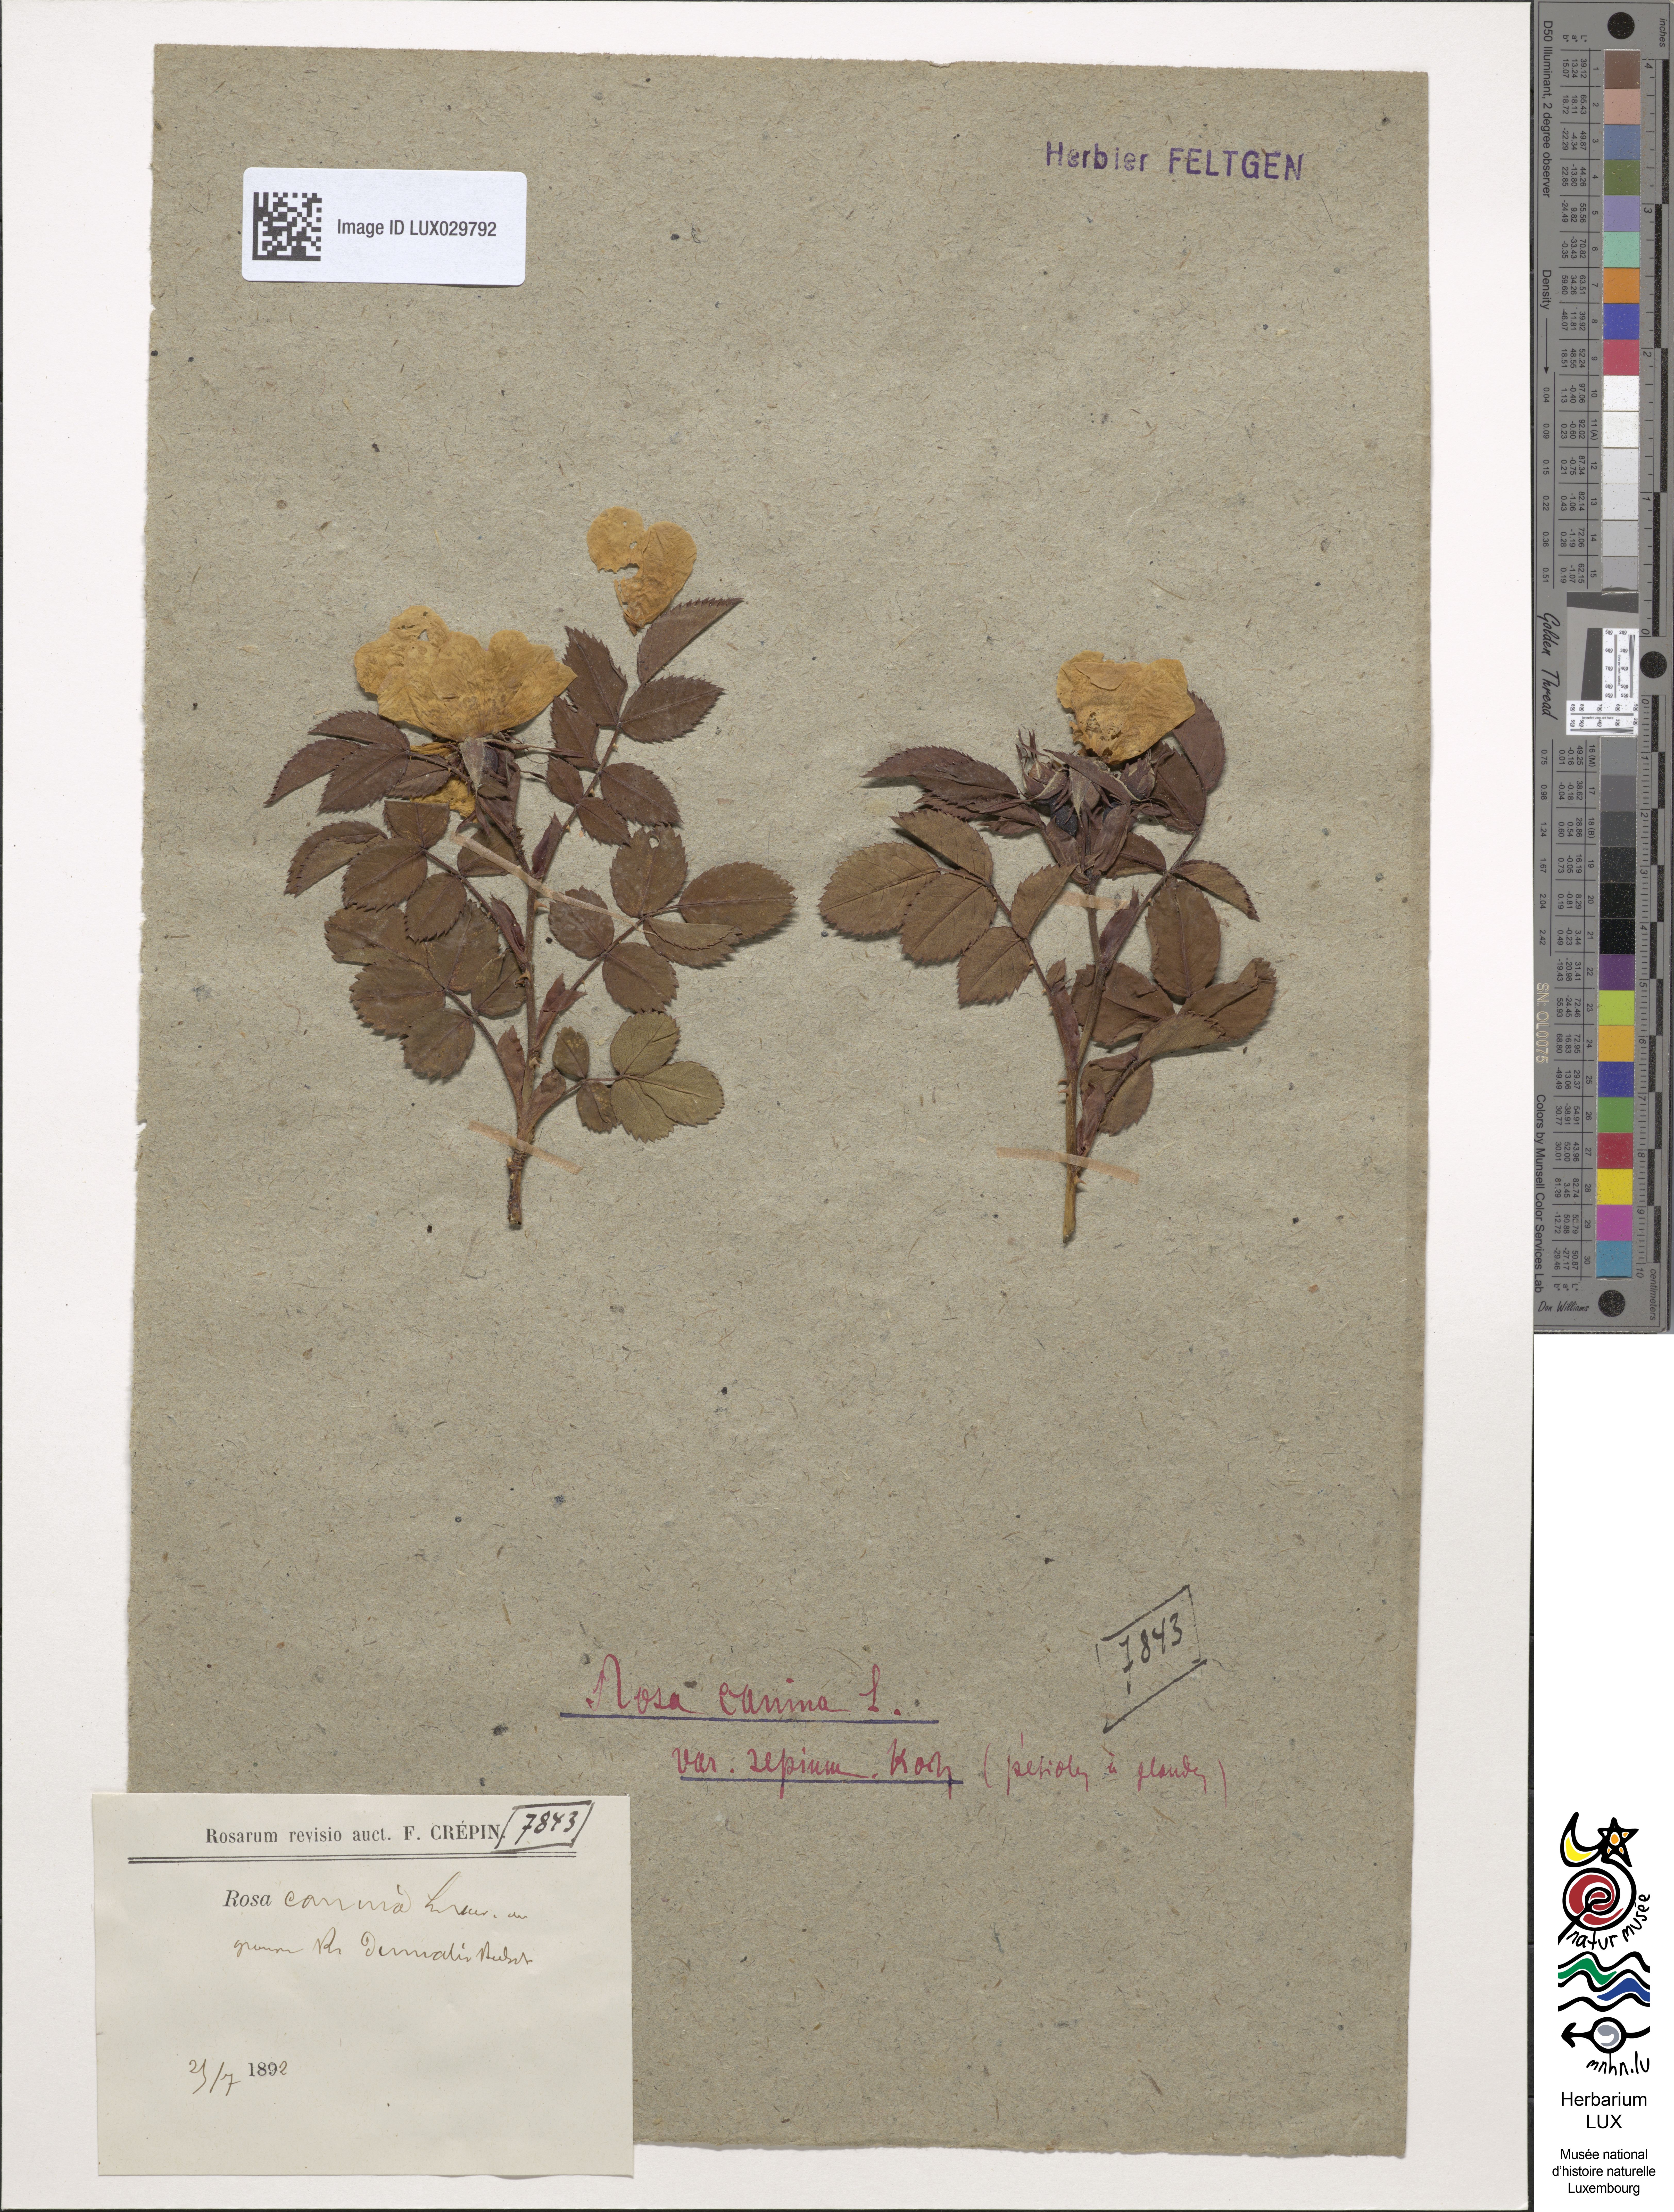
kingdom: Plantae
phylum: Tracheophyta
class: Magnoliopsida
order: Rosales
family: Rosaceae
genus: Rosa
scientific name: Rosa canina
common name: Dog rose
